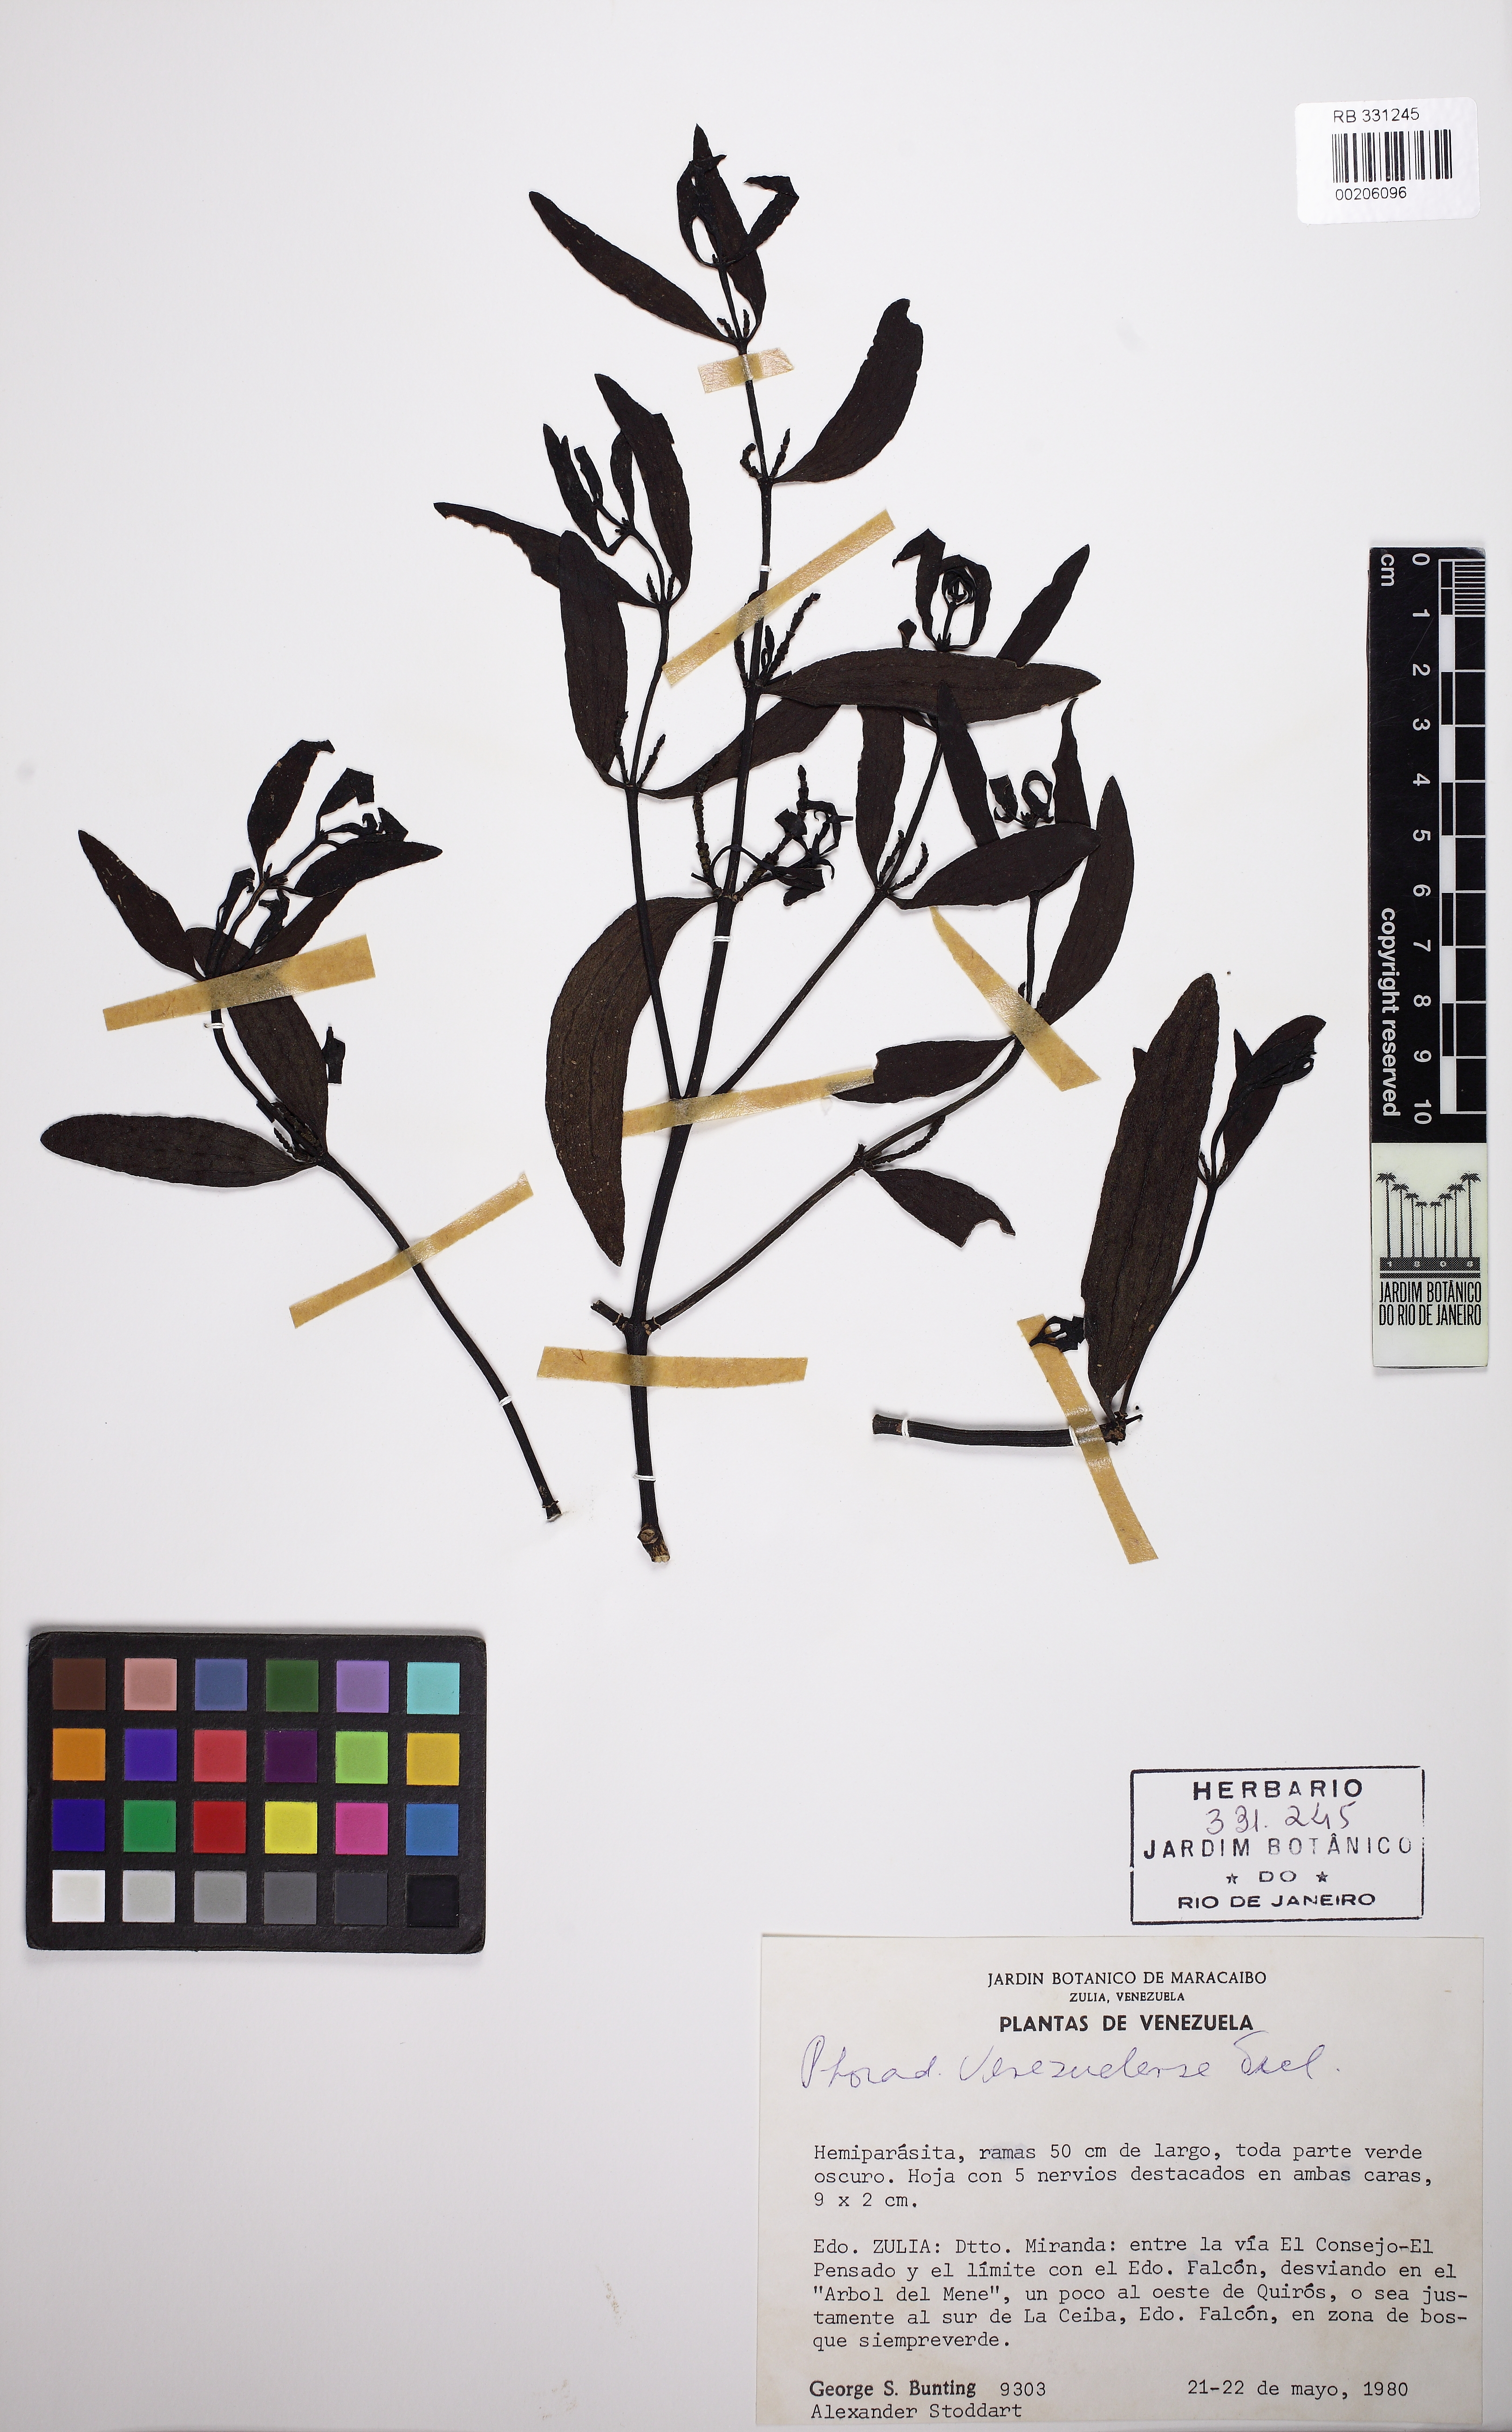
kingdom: Plantae
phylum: Tracheophyta
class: Magnoliopsida
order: Santalales
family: Viscaceae
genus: Phoradendron
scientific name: Phoradendron quadrangulare
